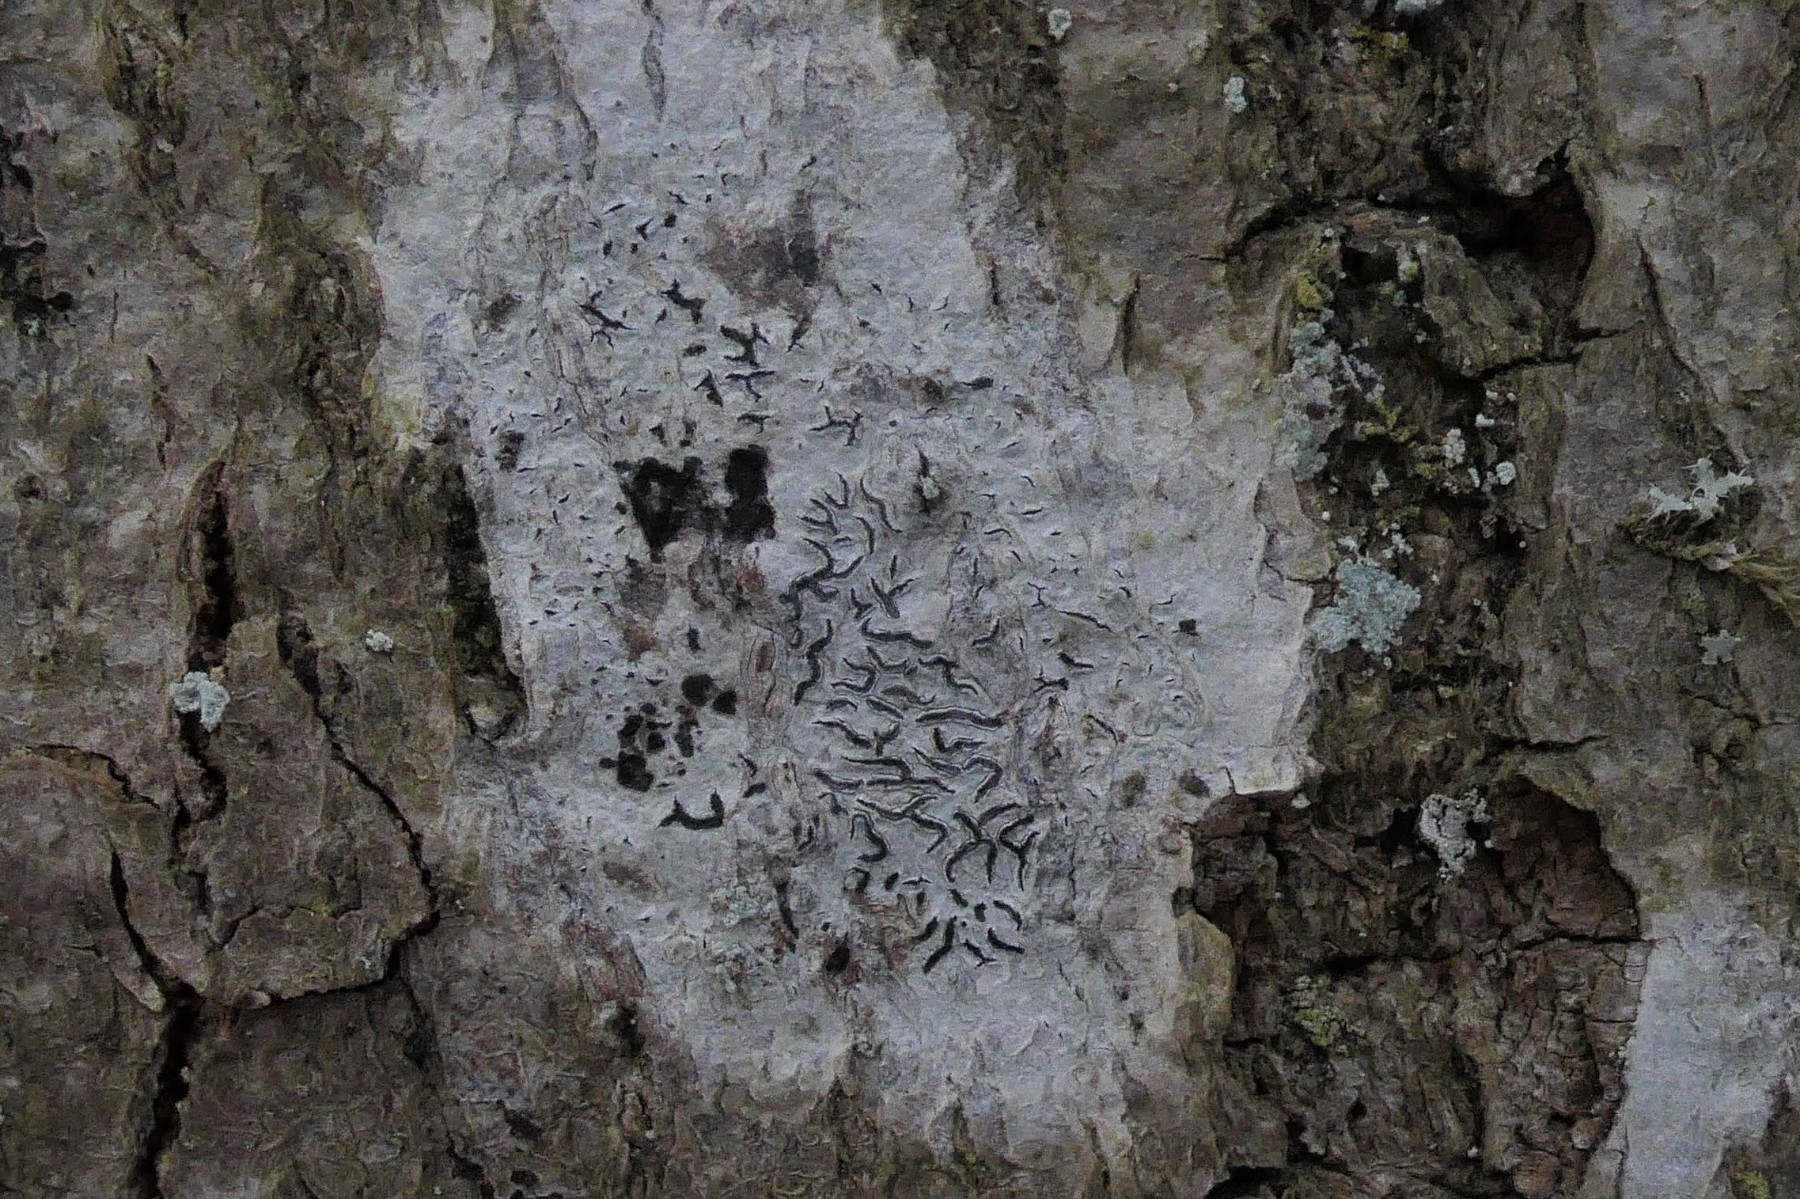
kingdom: Fungi
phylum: Ascomycota
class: Lecanoromycetes
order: Ostropales
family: Graphidaceae
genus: Graphis
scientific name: Graphis scripta
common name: almindelig skriftlav
